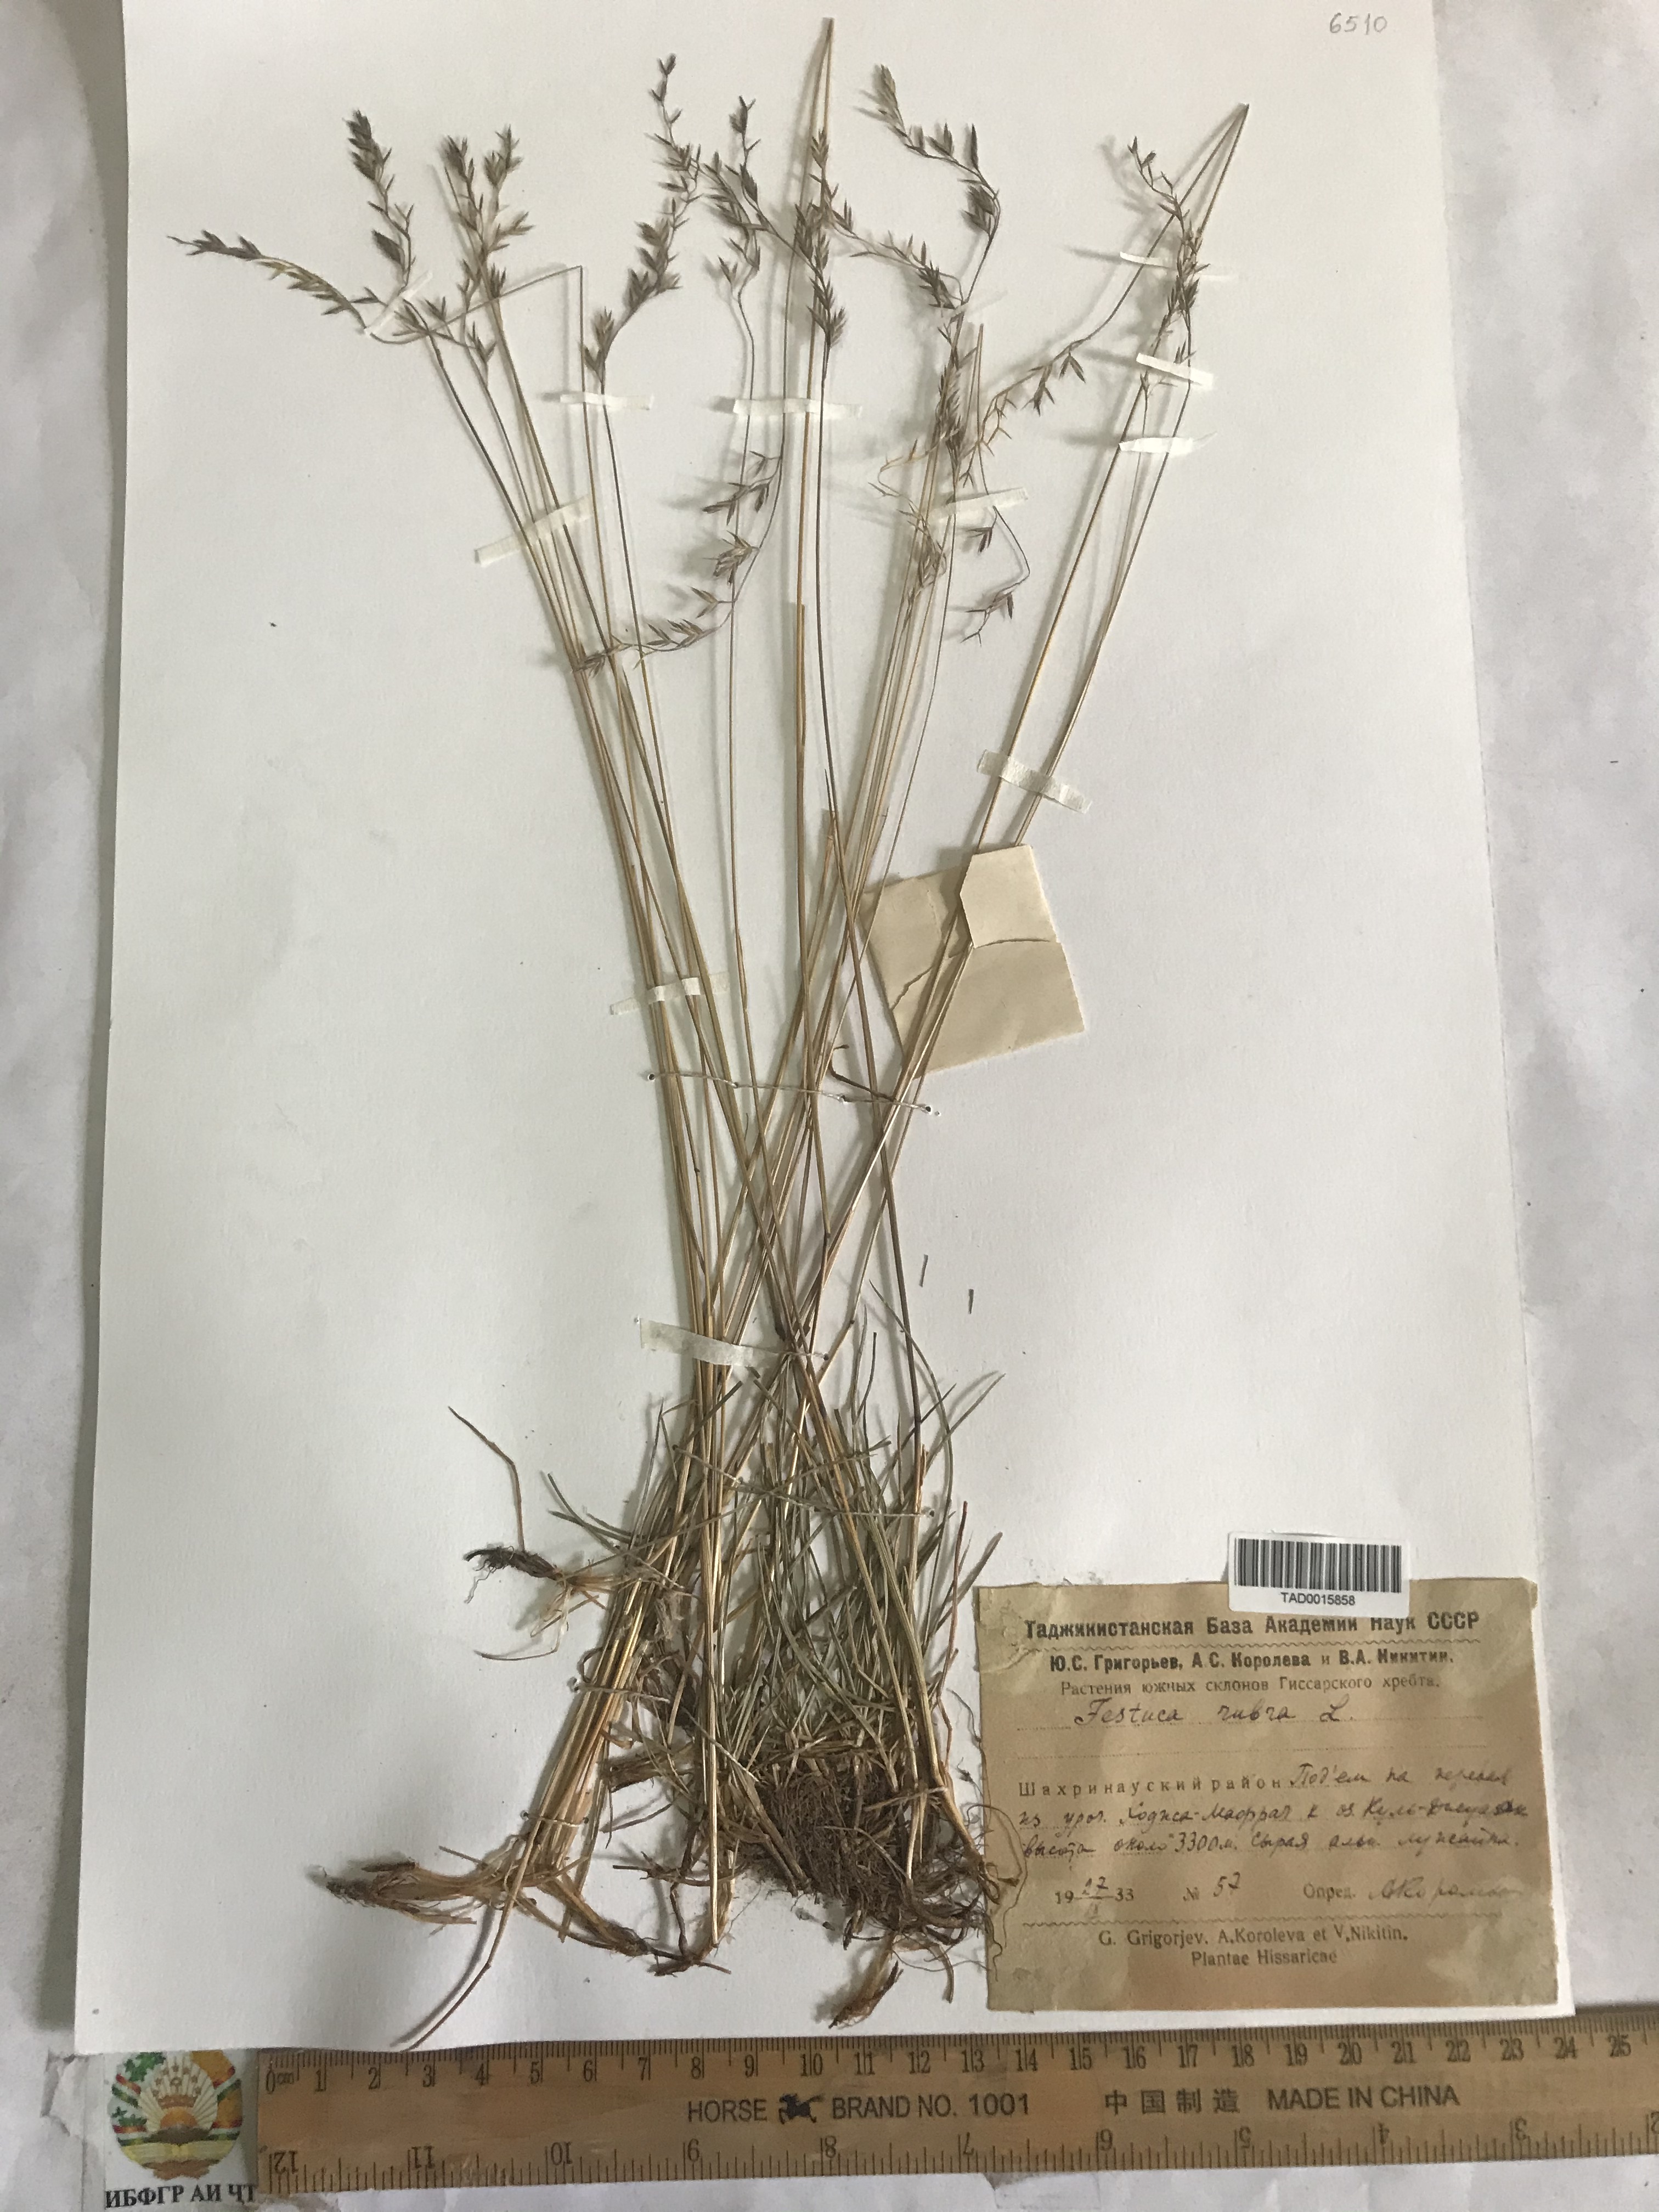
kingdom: Plantae
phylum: Tracheophyta
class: Liliopsida
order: Poales
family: Poaceae
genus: Festuca
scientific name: Festuca rubra
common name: Red fescue
